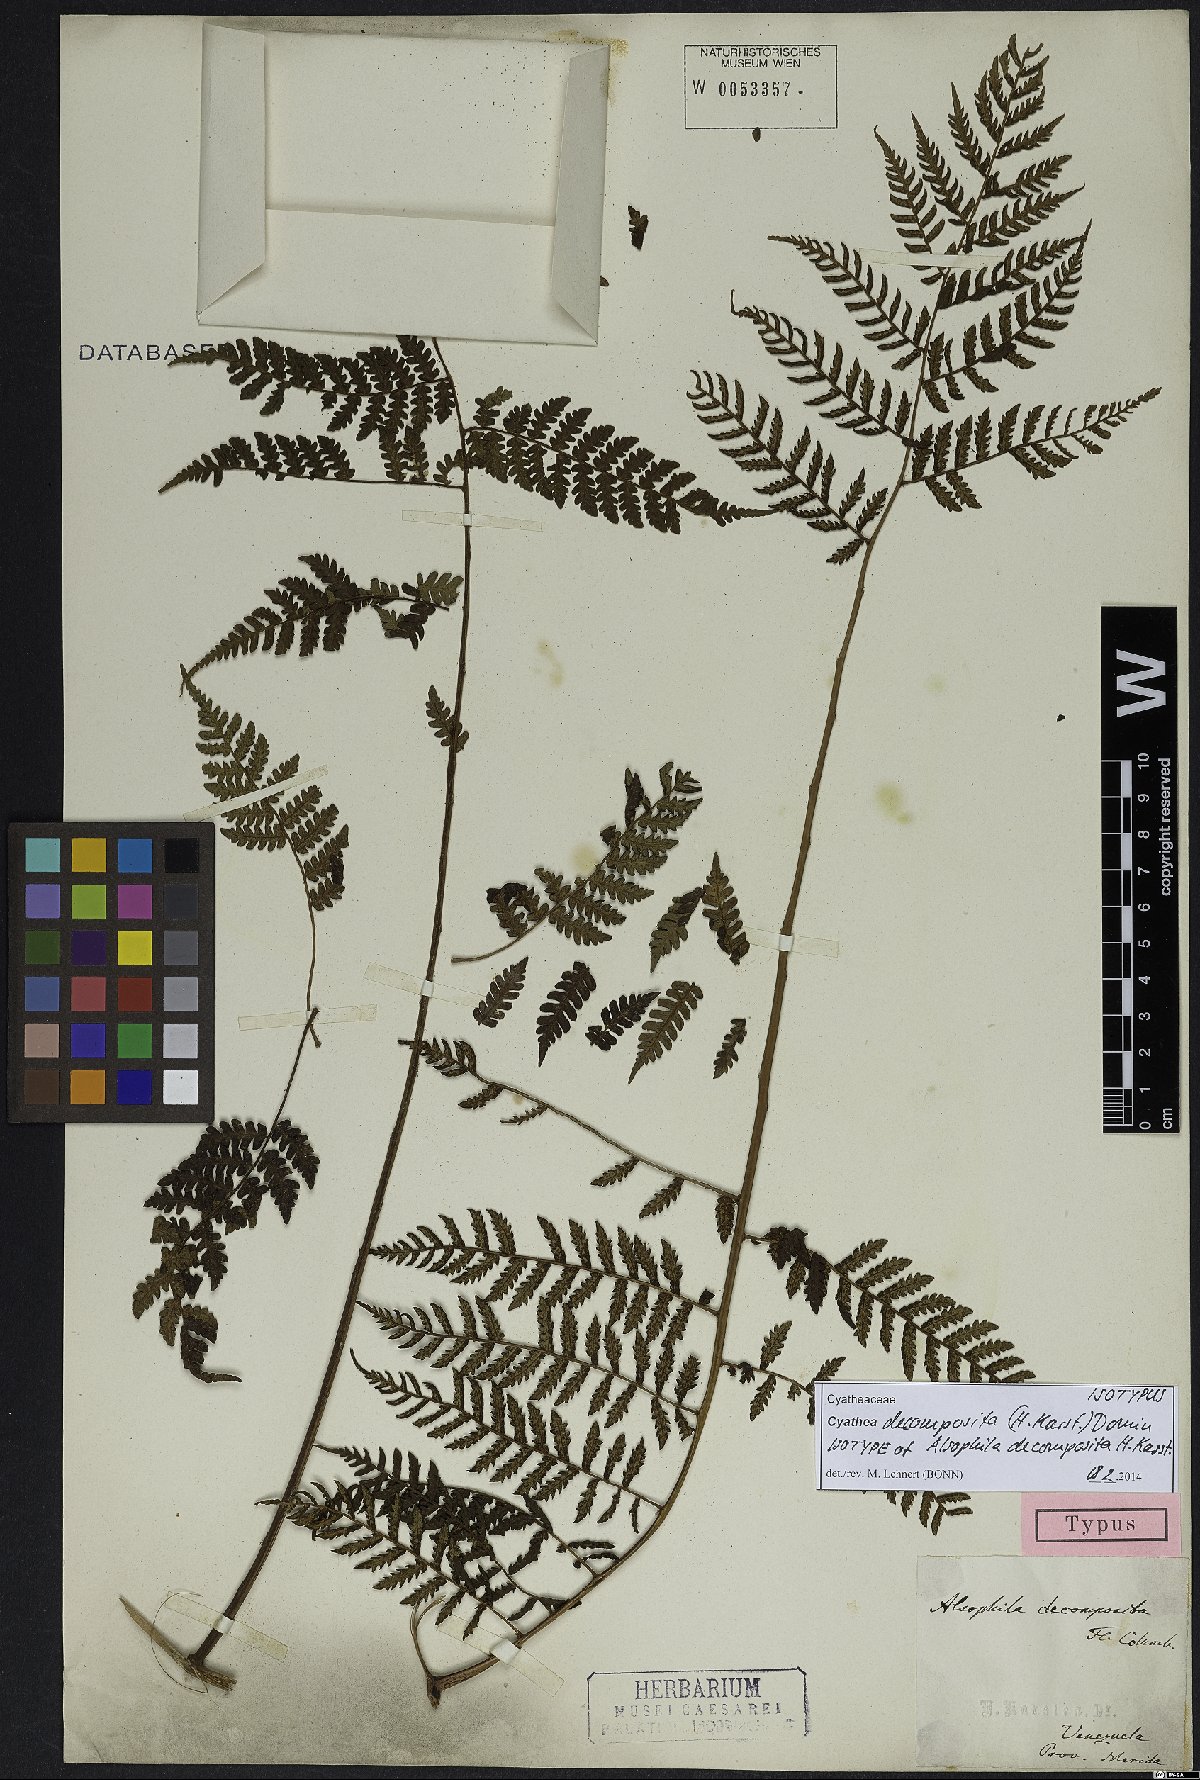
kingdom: Plantae
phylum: Tracheophyta
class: Polypodiopsida
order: Cyatheales
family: Cyatheaceae
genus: Cyathea
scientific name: Cyathea decomposita
